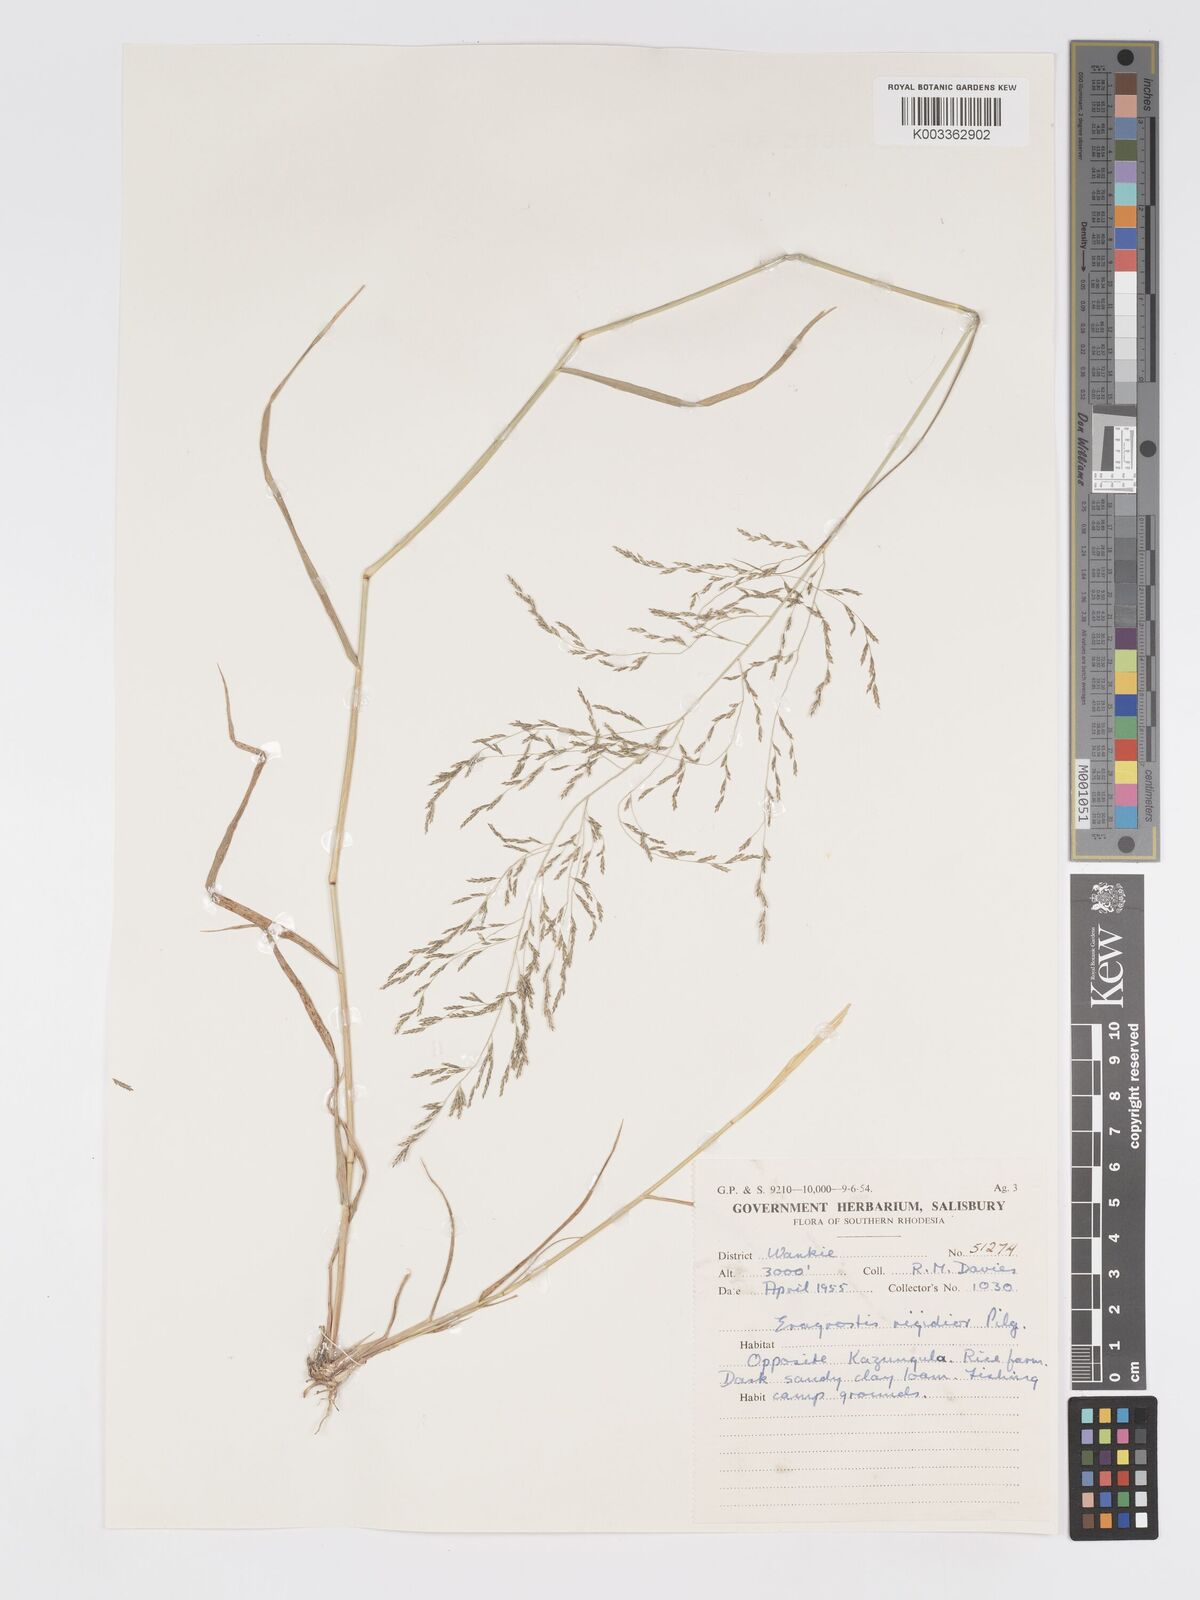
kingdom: Plantae
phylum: Tracheophyta
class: Liliopsida
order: Poales
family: Poaceae
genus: Eragrostis
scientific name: Eragrostis cylindriflora
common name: Cylinderflower lovegrass
